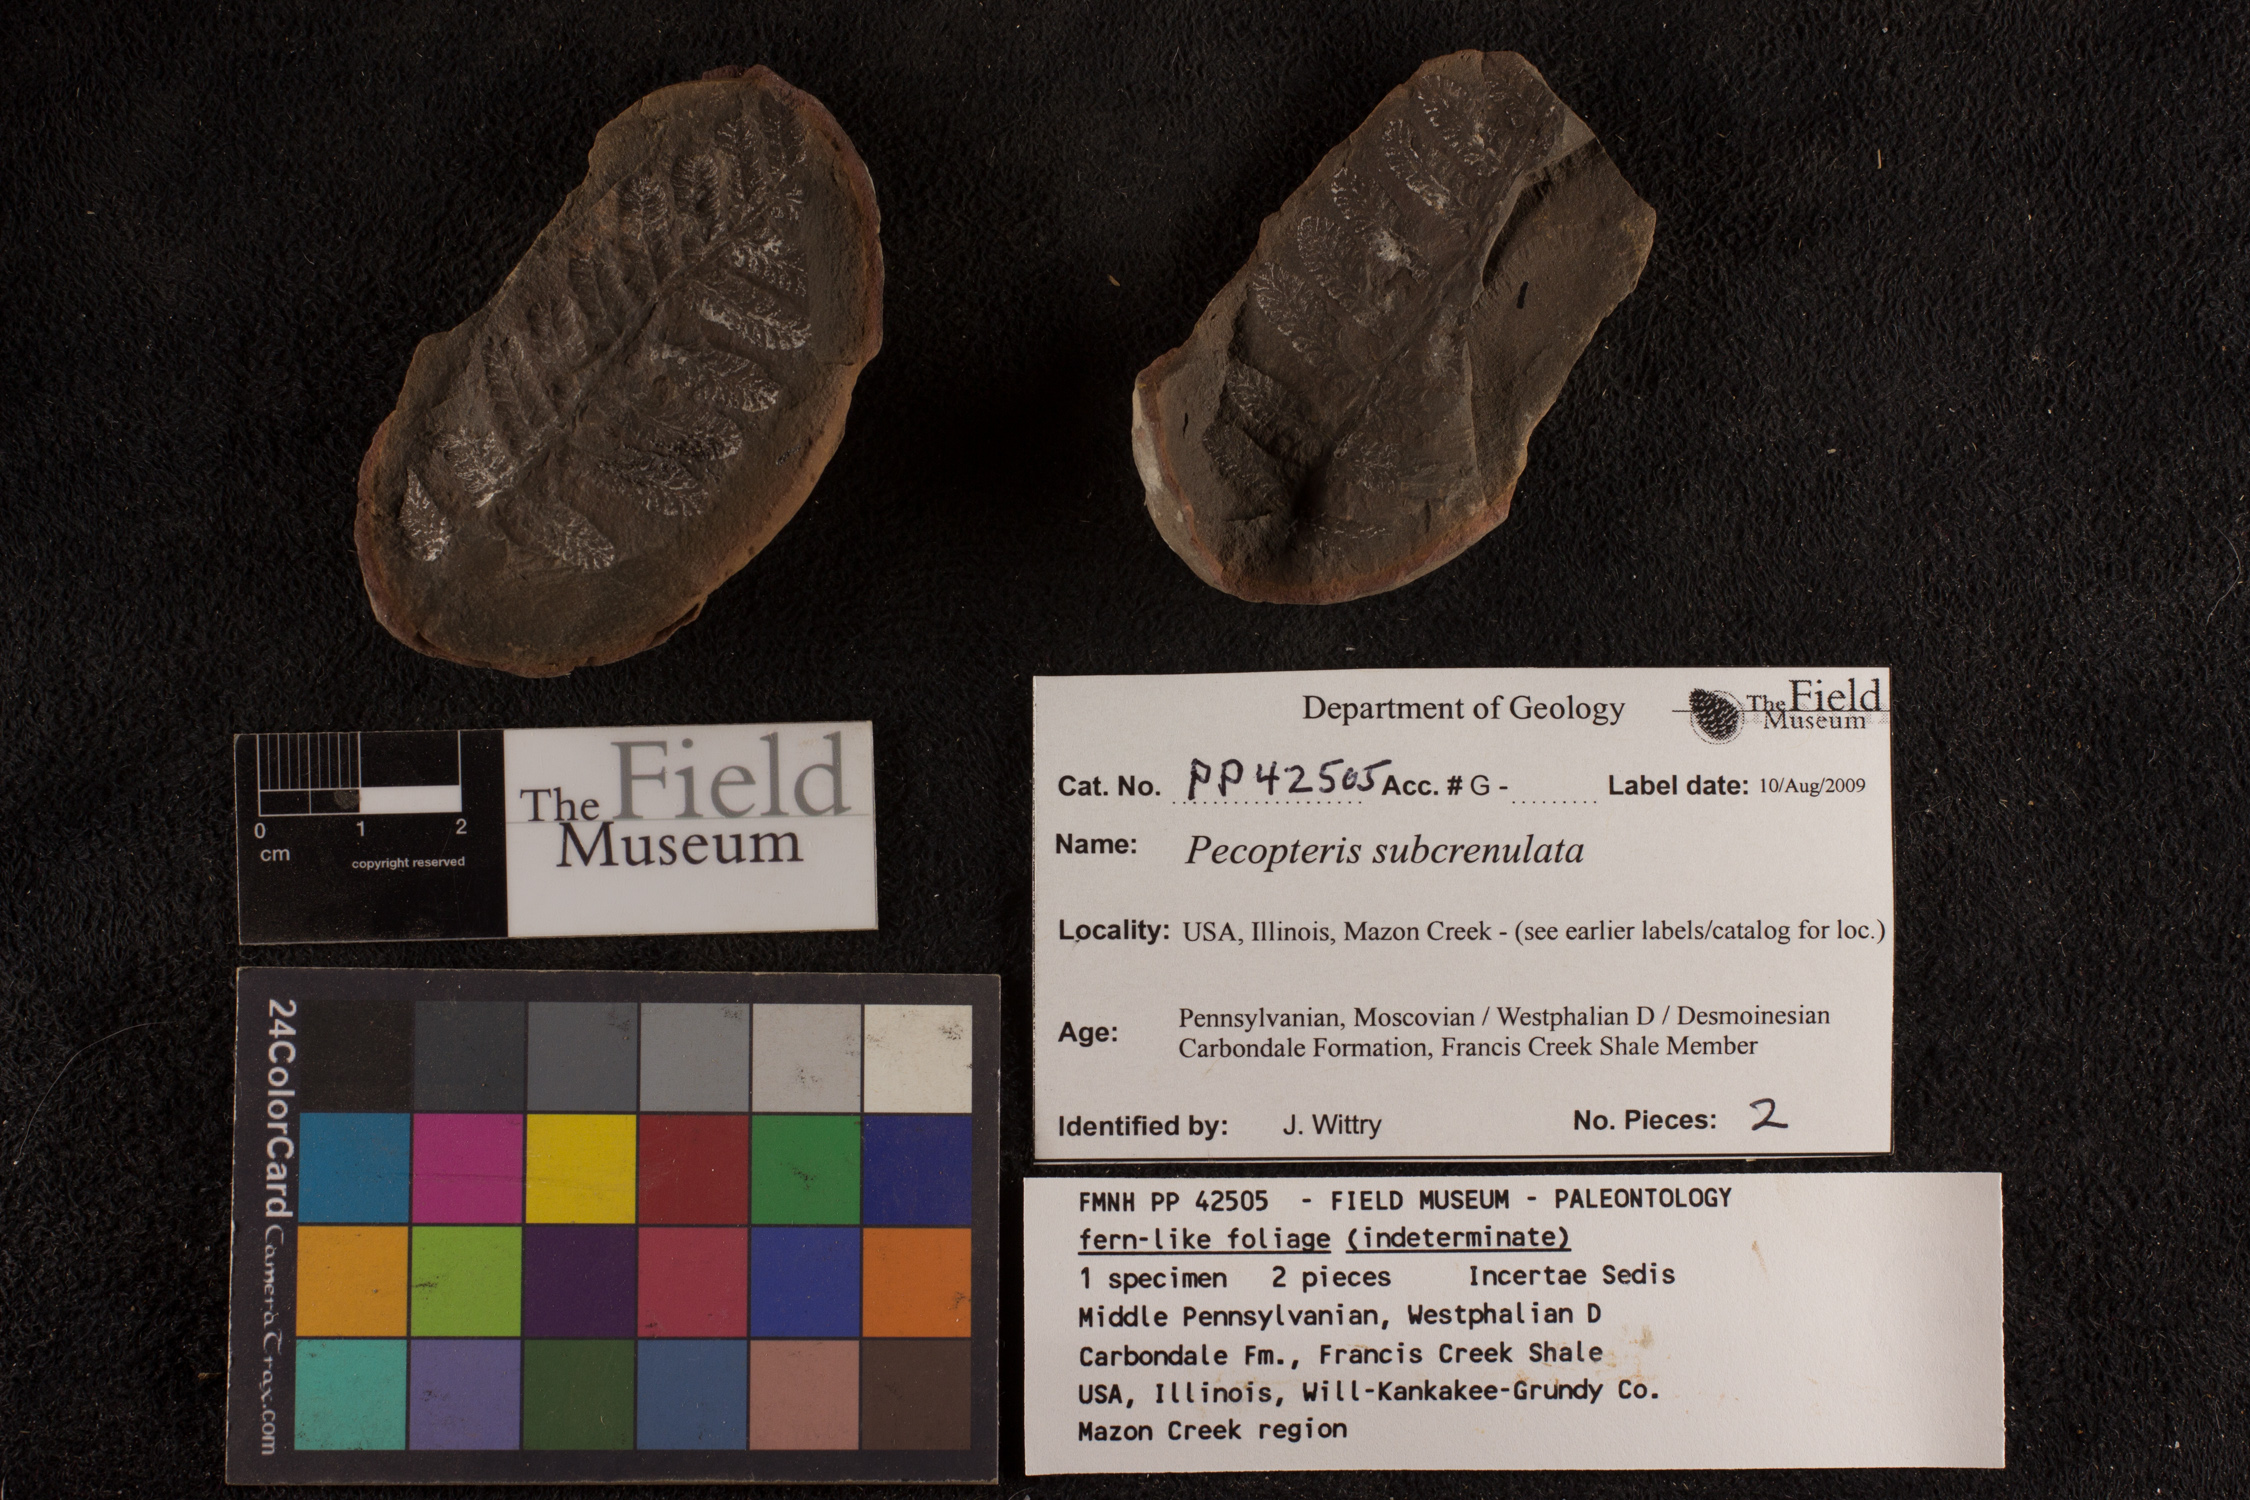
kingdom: Plantae
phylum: Tracheophyta
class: Polypodiopsida
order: Marattiales
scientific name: Marattiales
